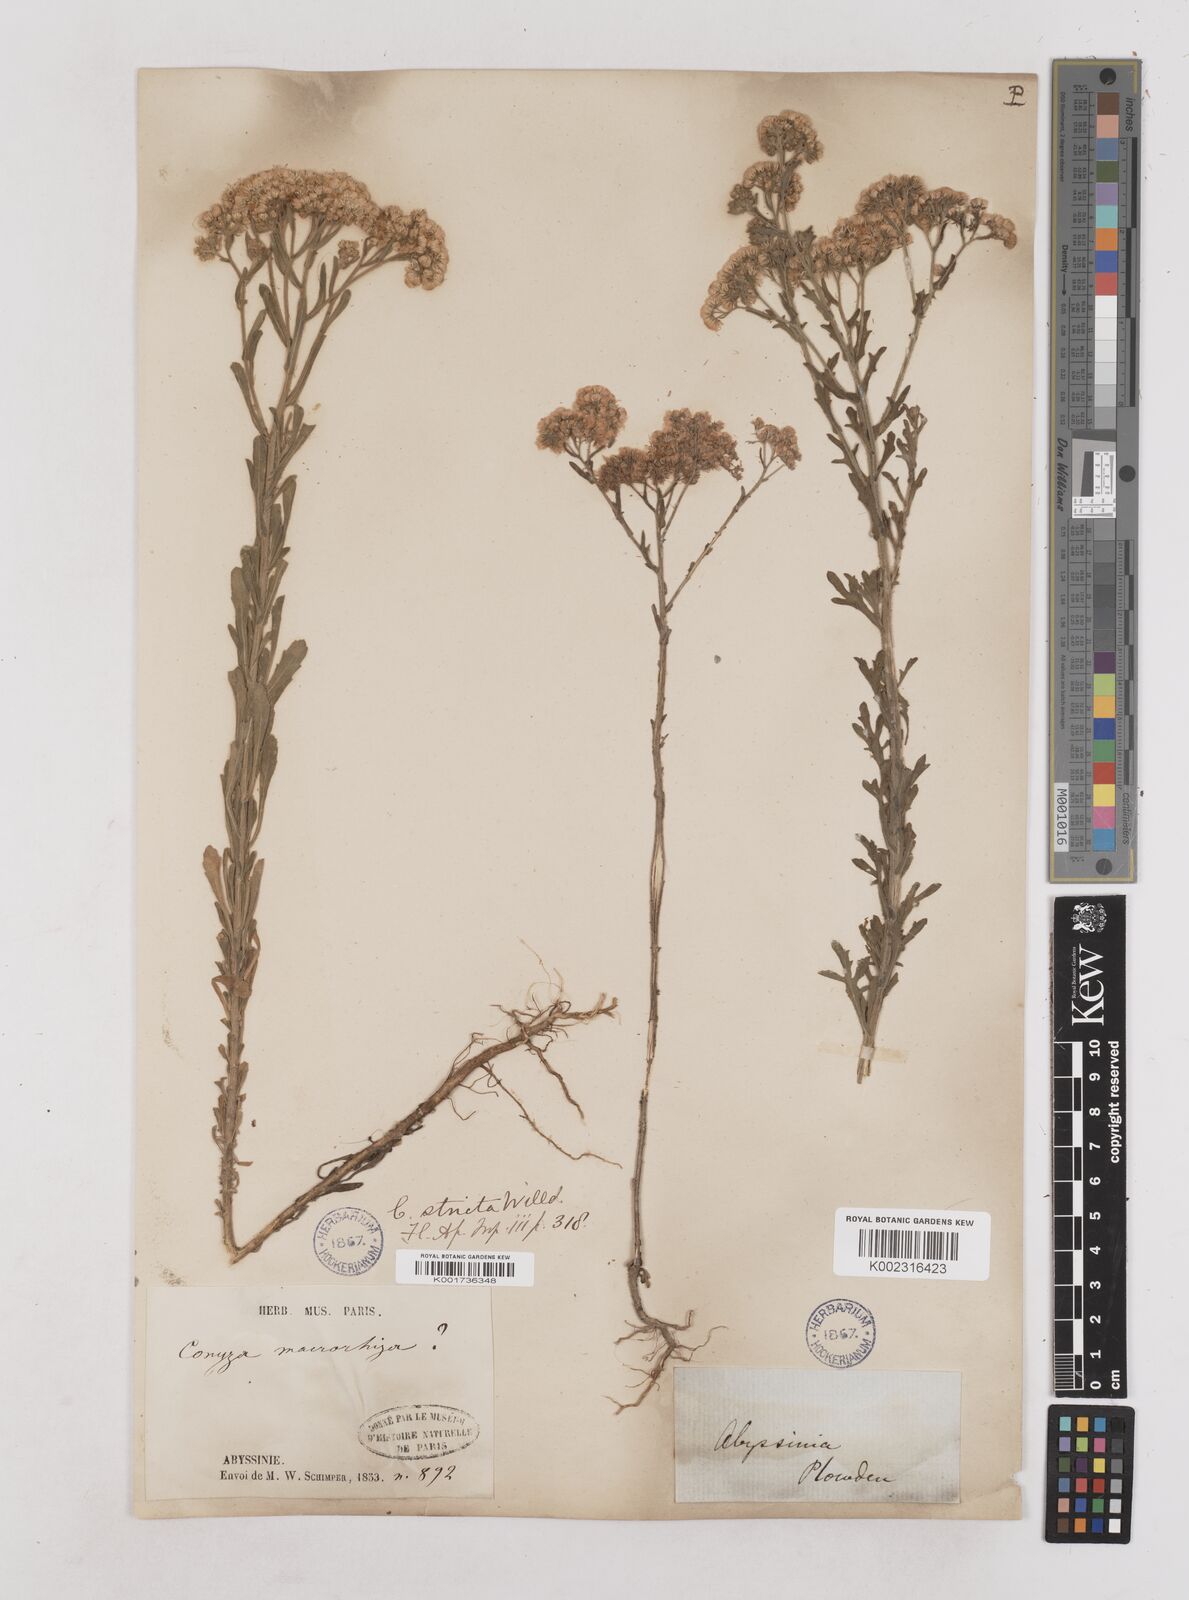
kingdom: Plantae
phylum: Tracheophyta
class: Magnoliopsida
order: Asterales
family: Asteraceae
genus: Nidorella
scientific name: Nidorella triloba
